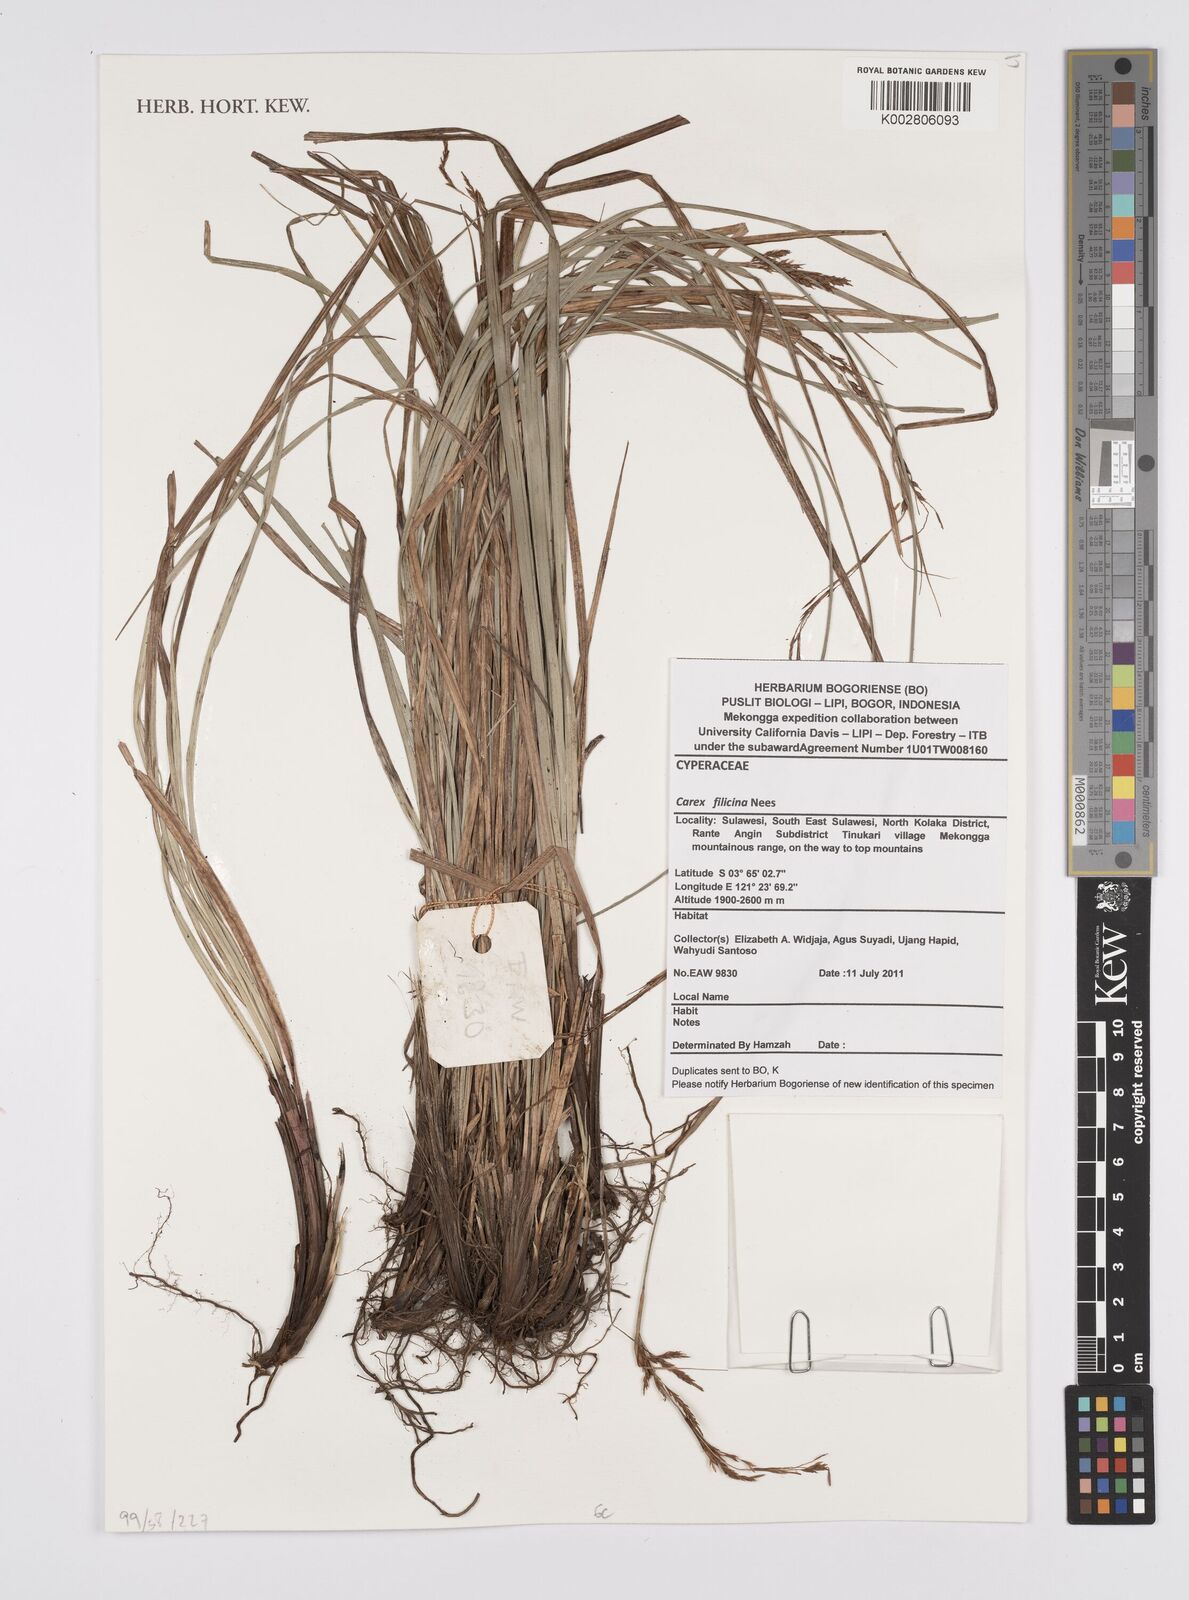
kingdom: Plantae
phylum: Tracheophyta
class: Liliopsida
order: Poales
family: Cyperaceae
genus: Carex
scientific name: Carex filicina
